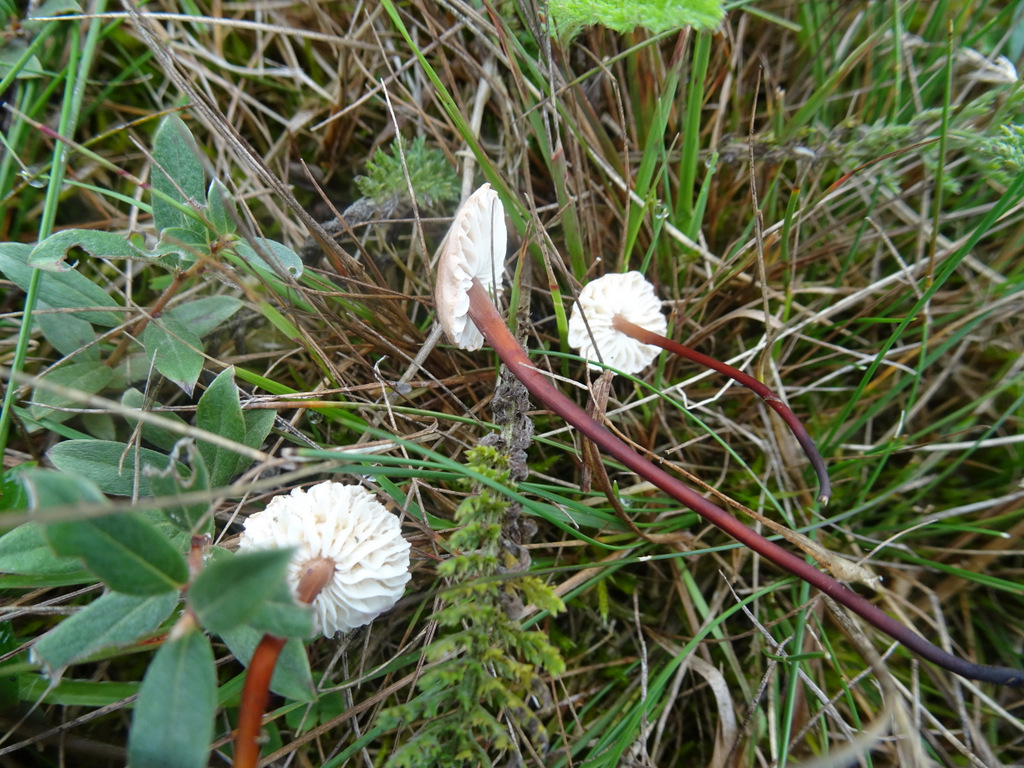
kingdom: Fungi
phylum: Basidiomycota
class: Agaricomycetes
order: Agaricales
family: Omphalotaceae
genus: Mycetinis
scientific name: Mycetinis scorodonius
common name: lille løghat
